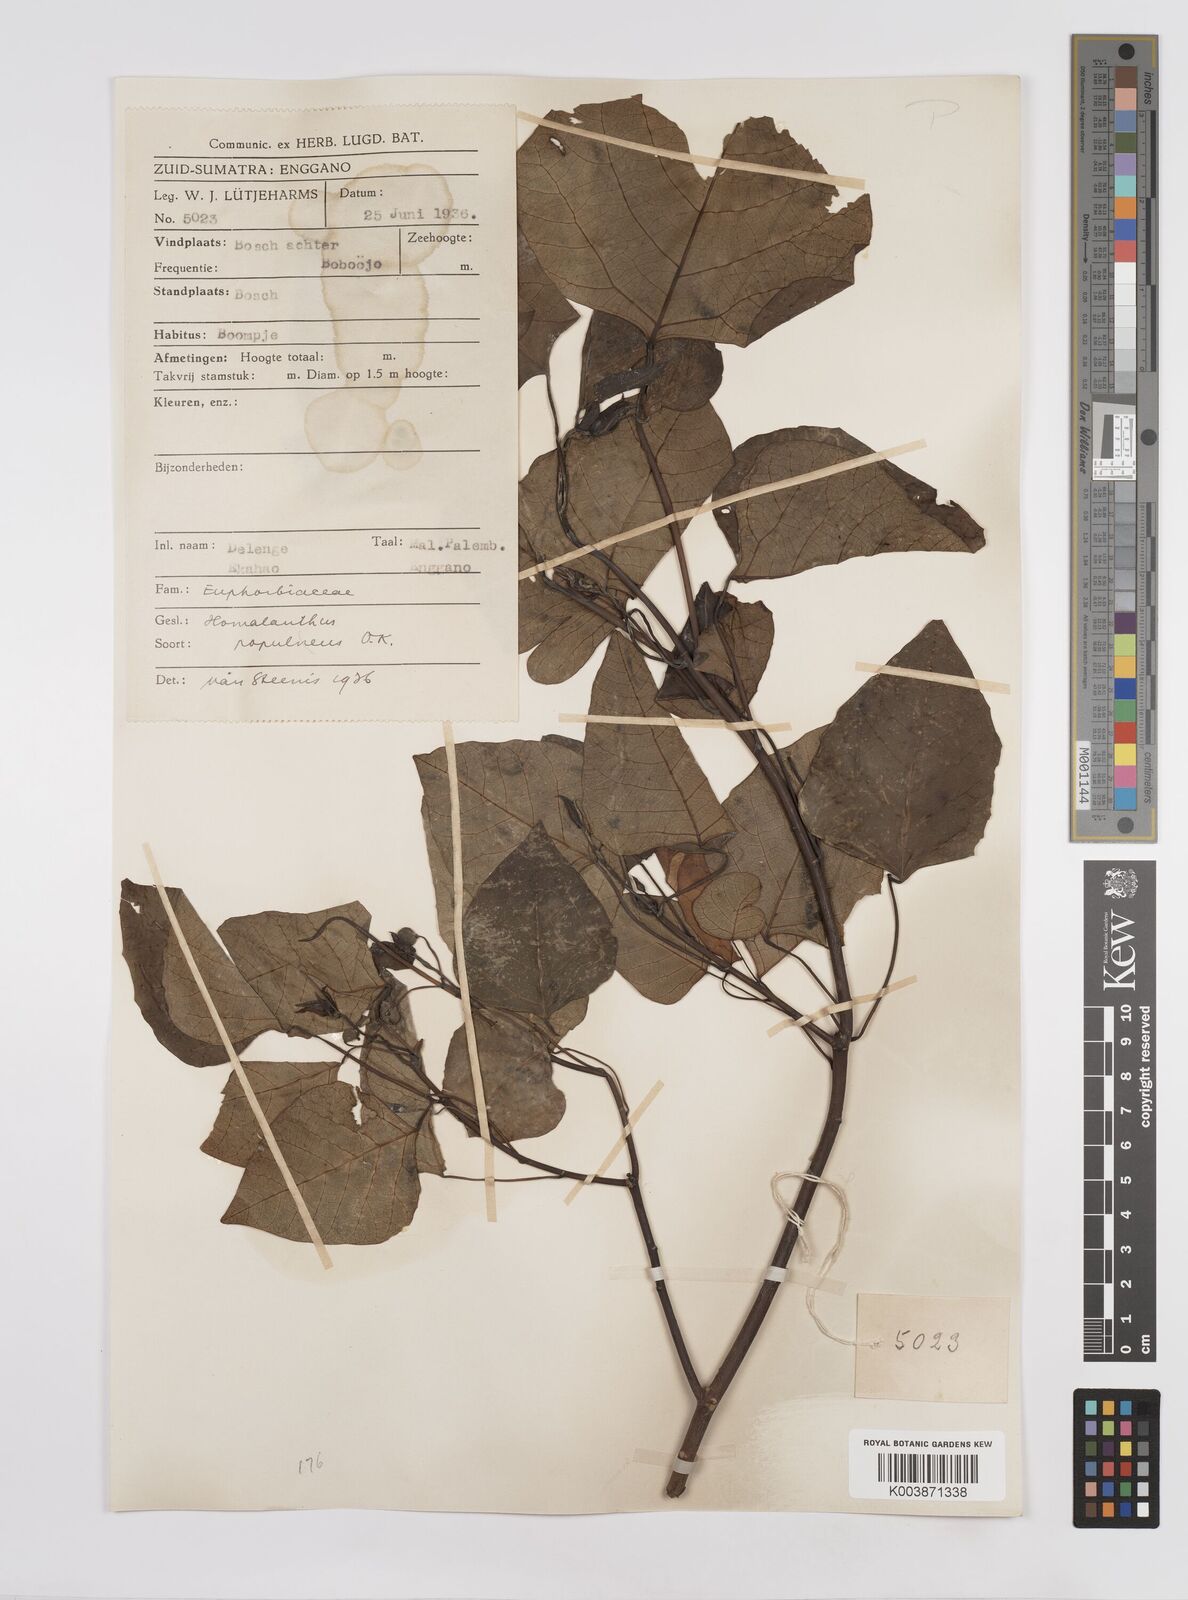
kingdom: Plantae
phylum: Tracheophyta
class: Magnoliopsida
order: Malpighiales
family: Euphorbiaceae
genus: Homalanthus
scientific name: Homalanthus populneus
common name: Spurge
